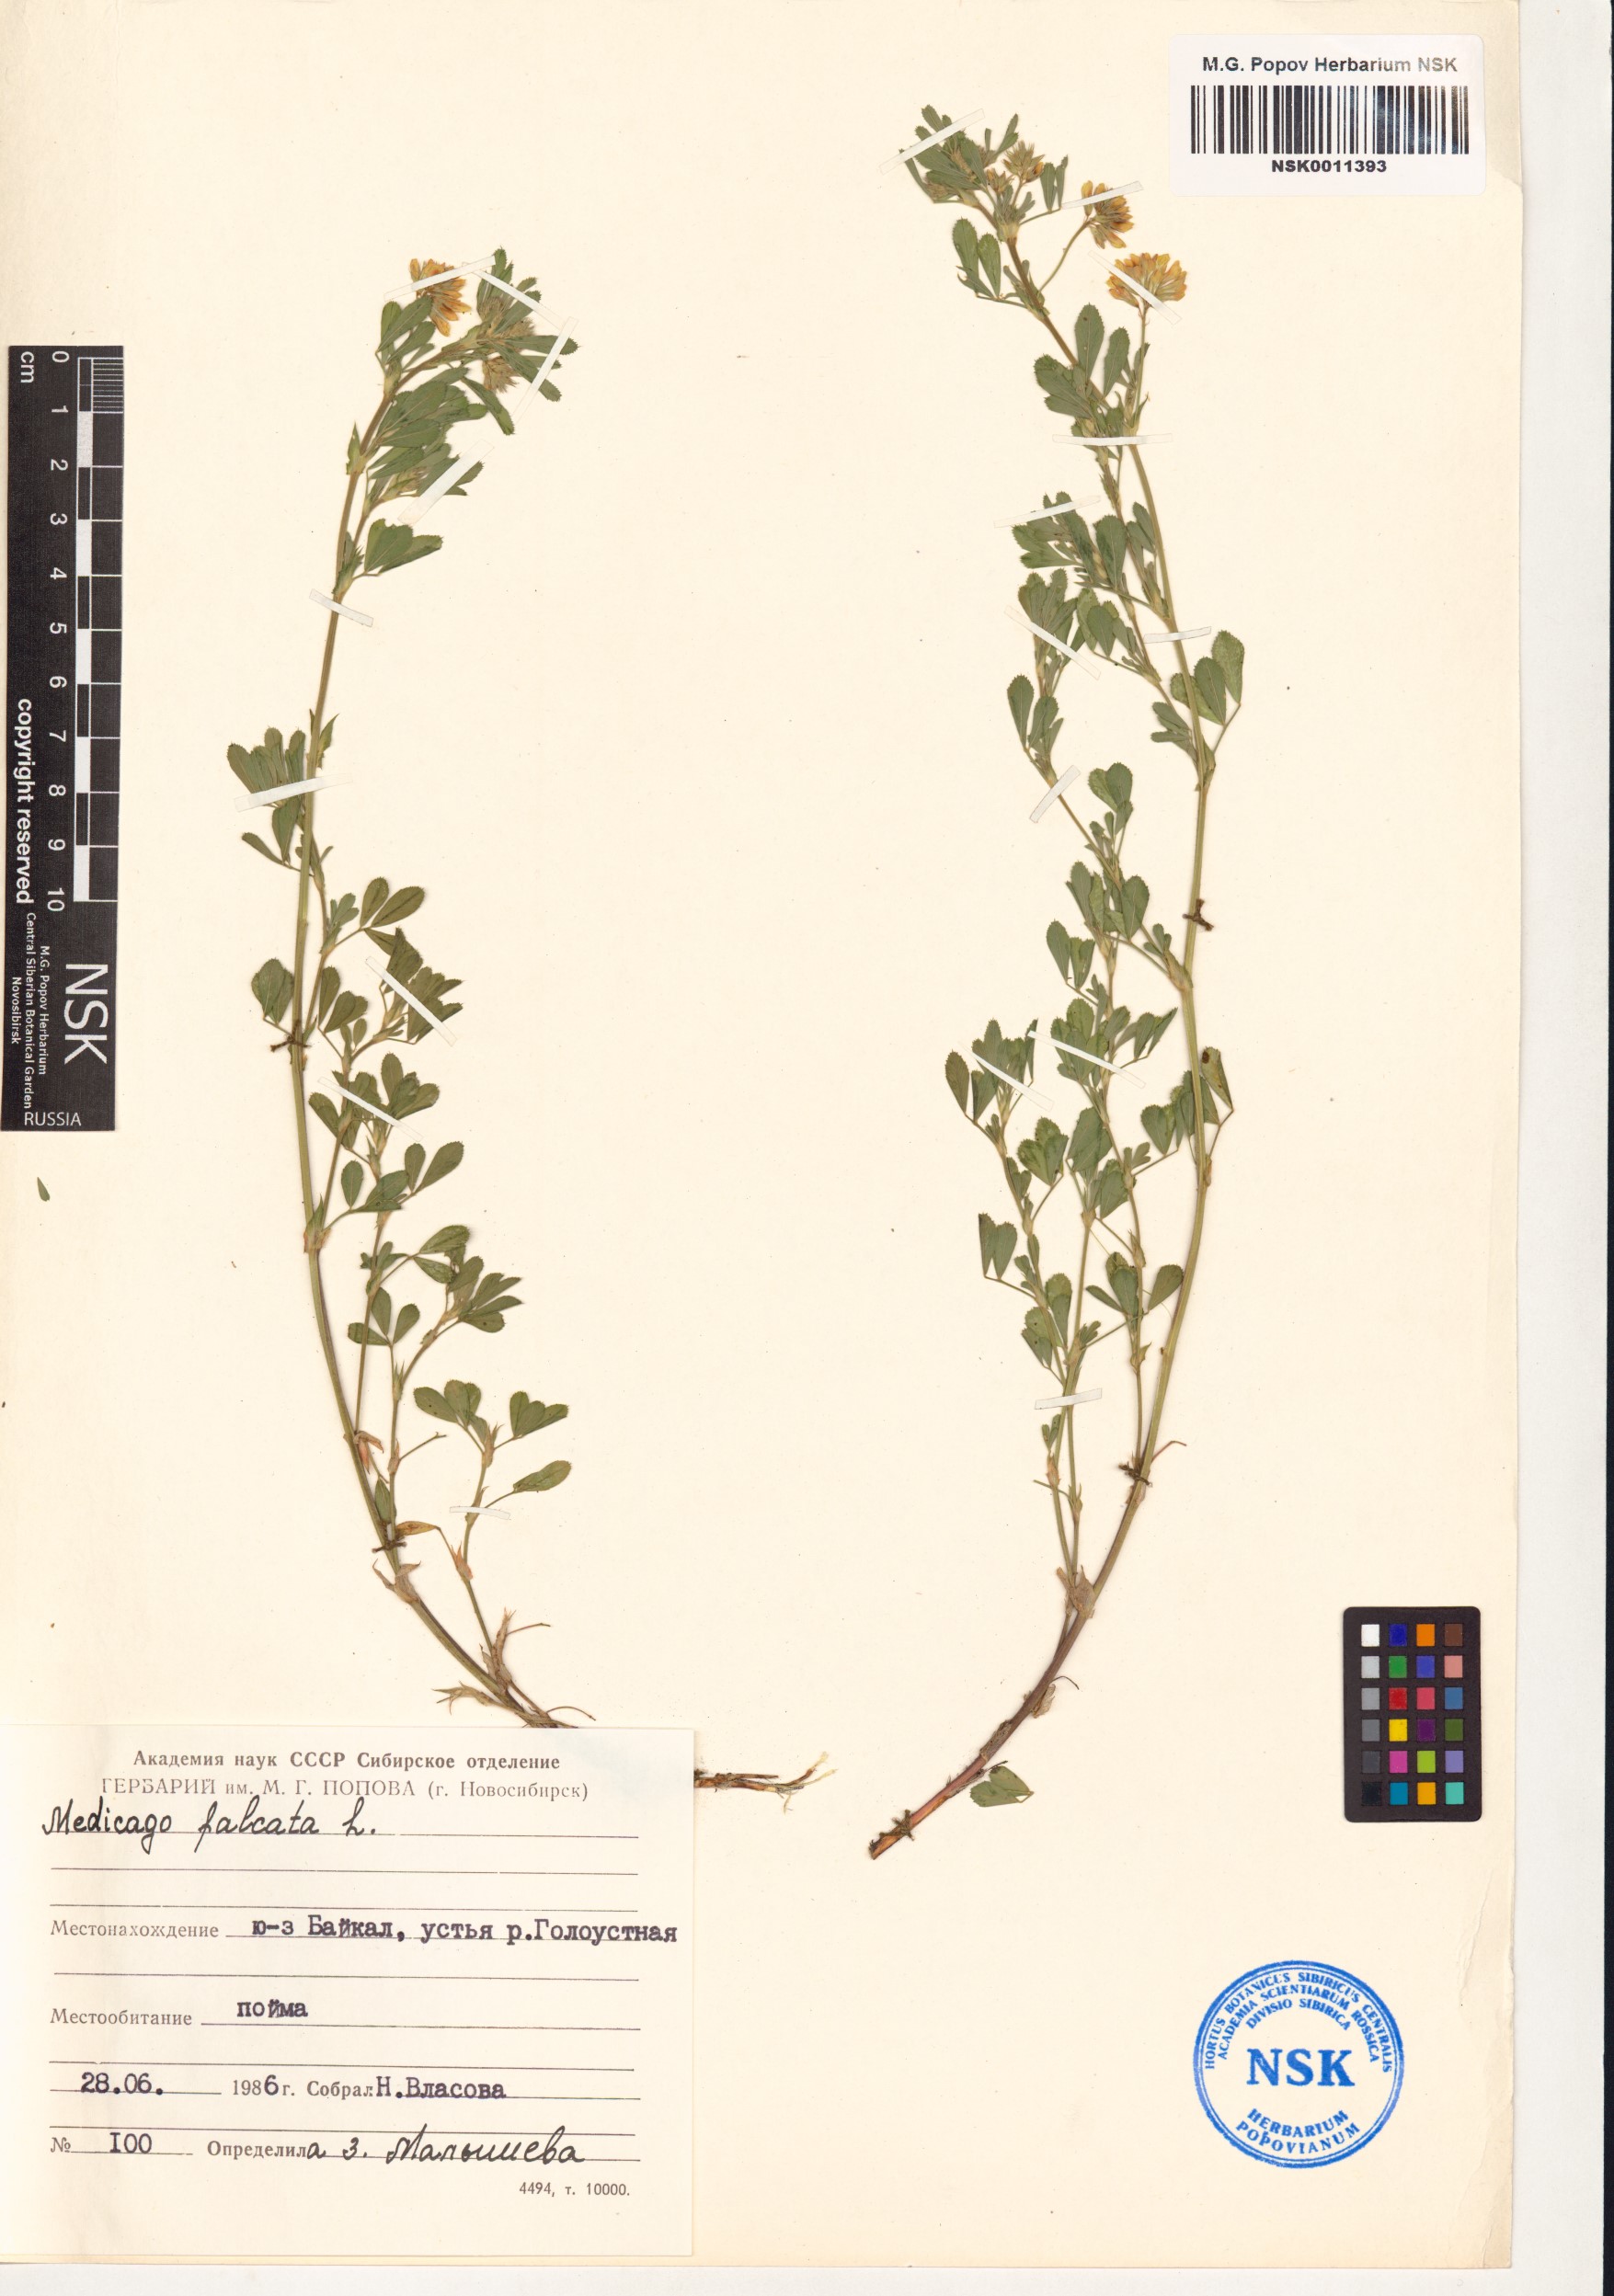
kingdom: Plantae
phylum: Tracheophyta
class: Magnoliopsida
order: Fabales
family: Fabaceae
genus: Medicago
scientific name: Medicago falcata
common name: Sickle medick
